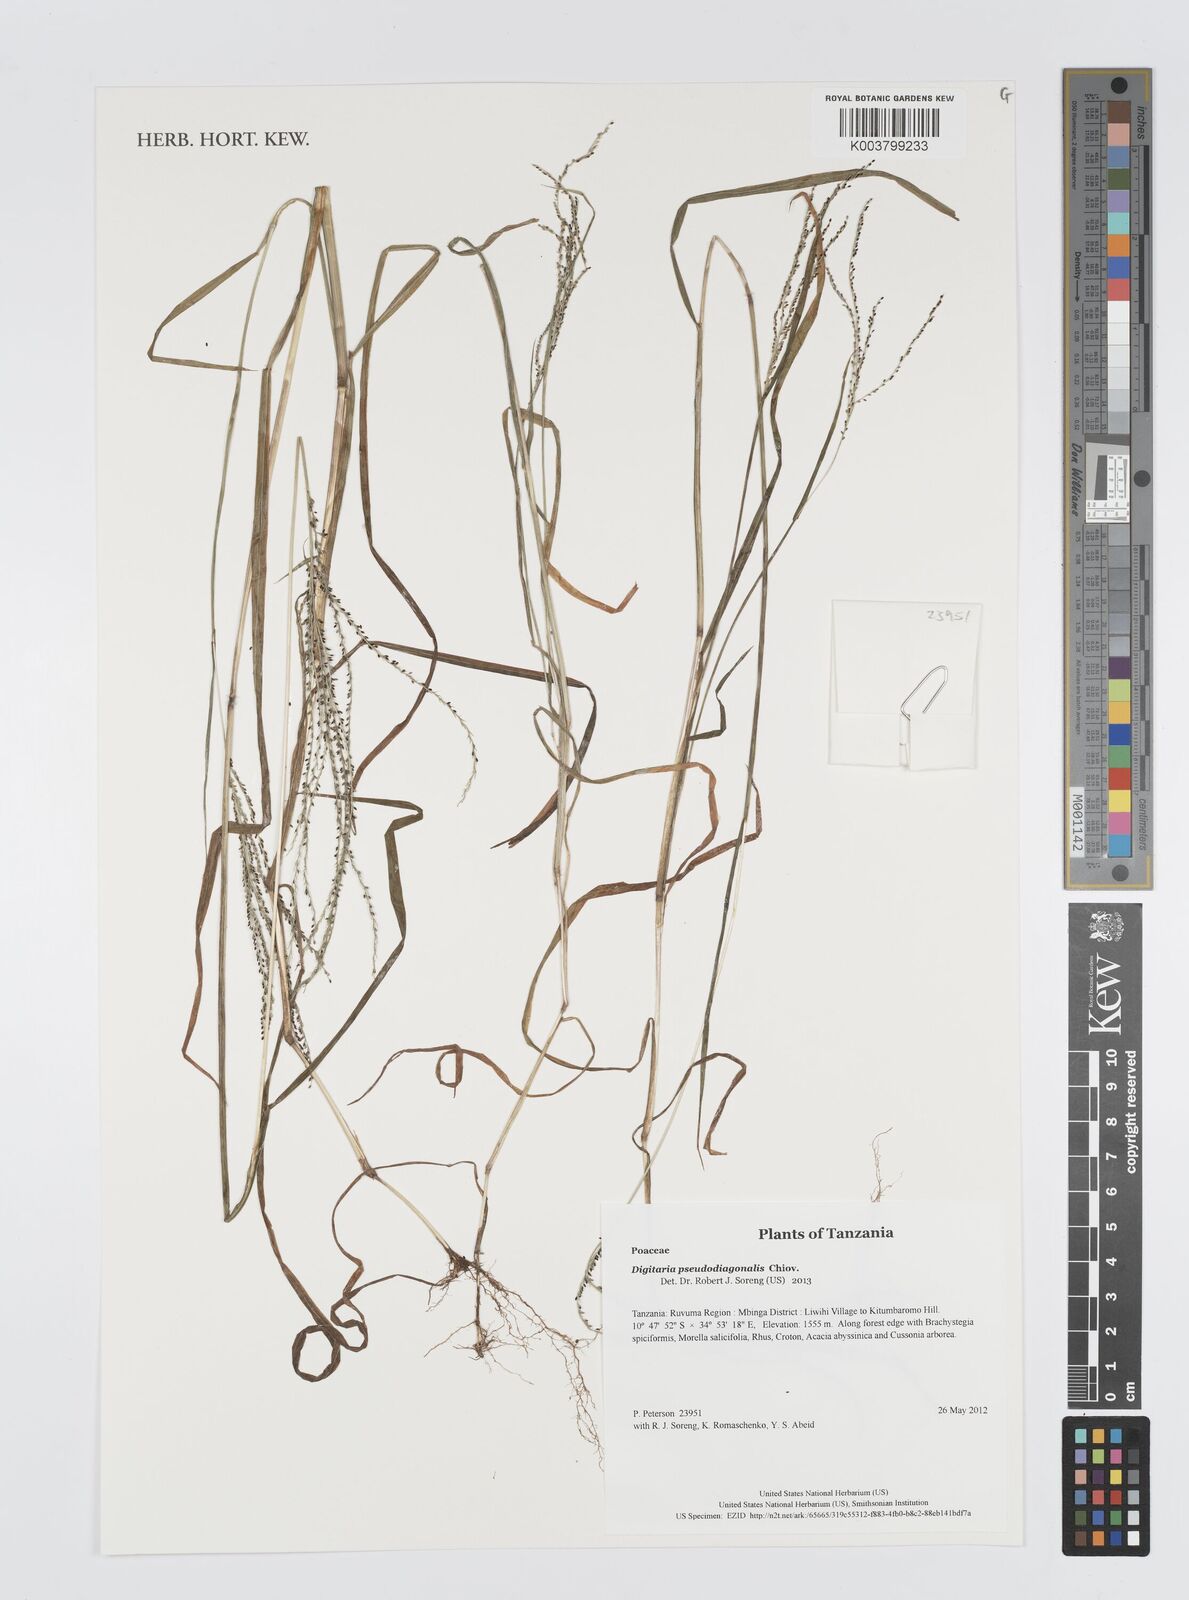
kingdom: Plantae
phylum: Tracheophyta
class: Liliopsida
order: Poales
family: Poaceae
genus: Digitaria
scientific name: Digitaria pseudodiagonalis
